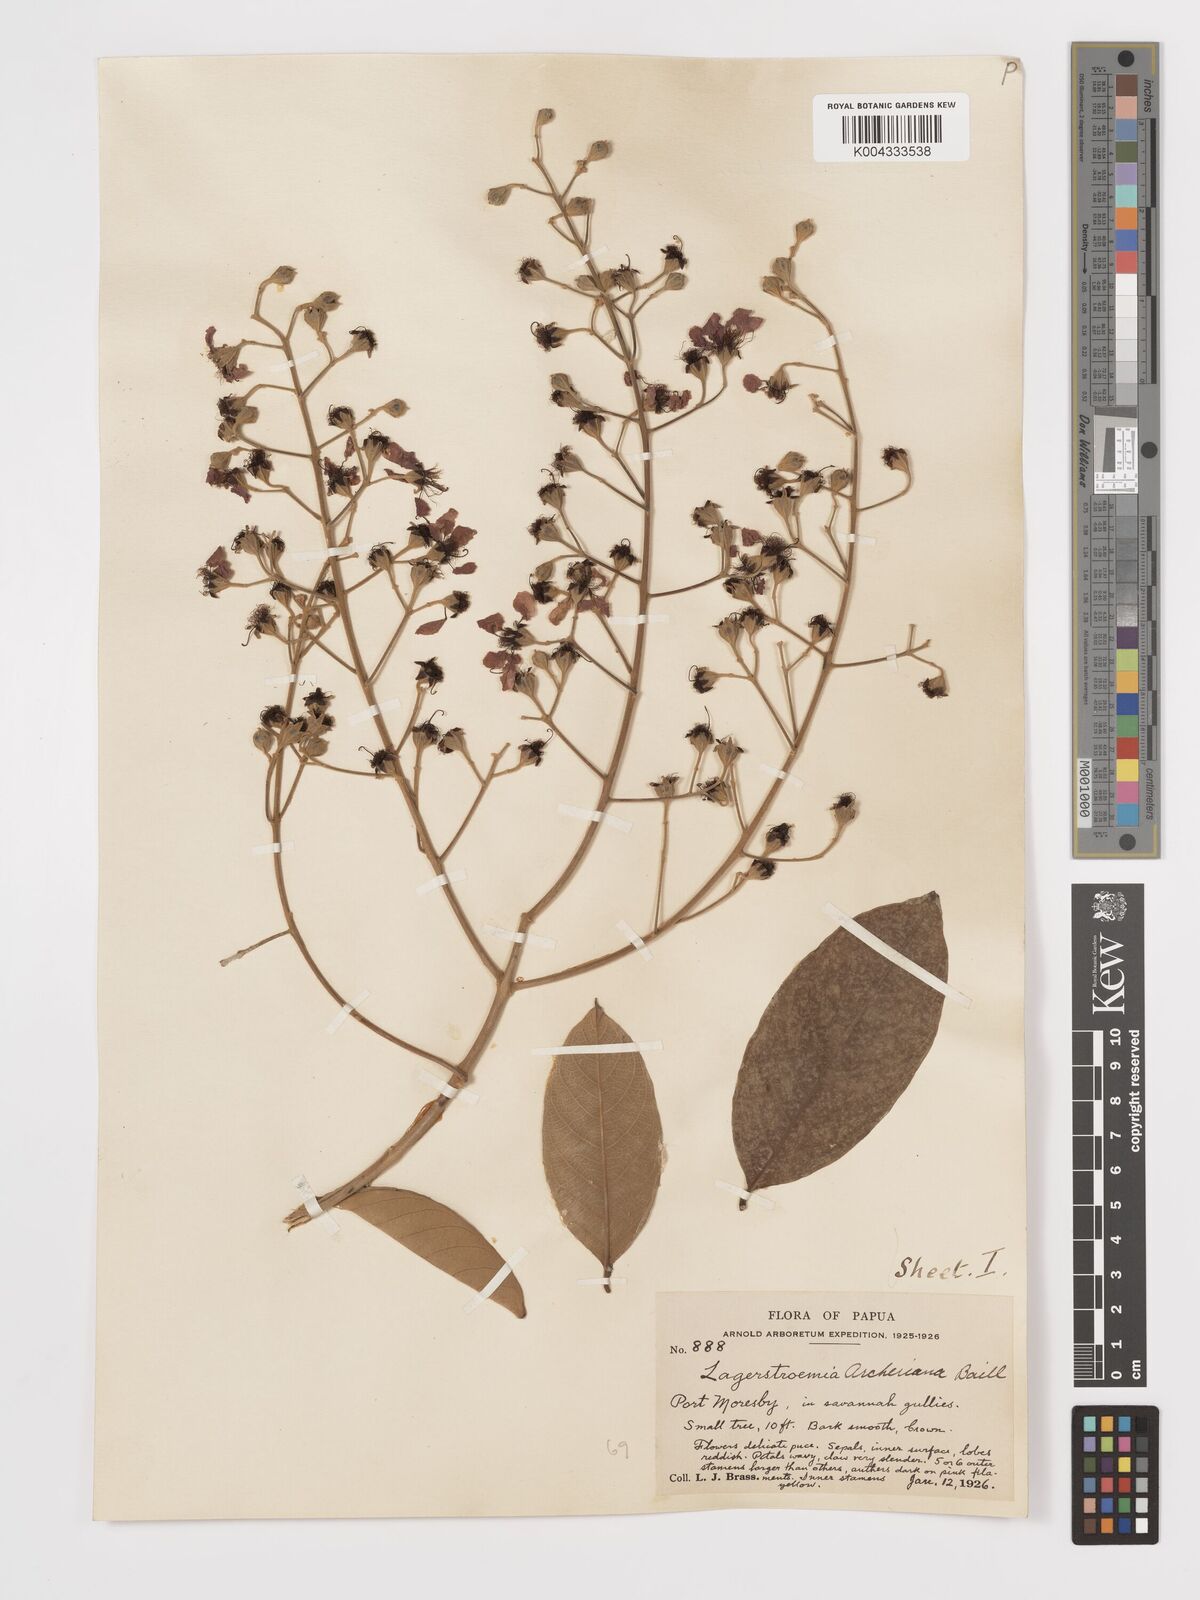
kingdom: Plantae
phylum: Tracheophyta
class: Magnoliopsida
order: Myrtales
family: Lythraceae
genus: Lagerstroemia
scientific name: Lagerstroemia engleriana
